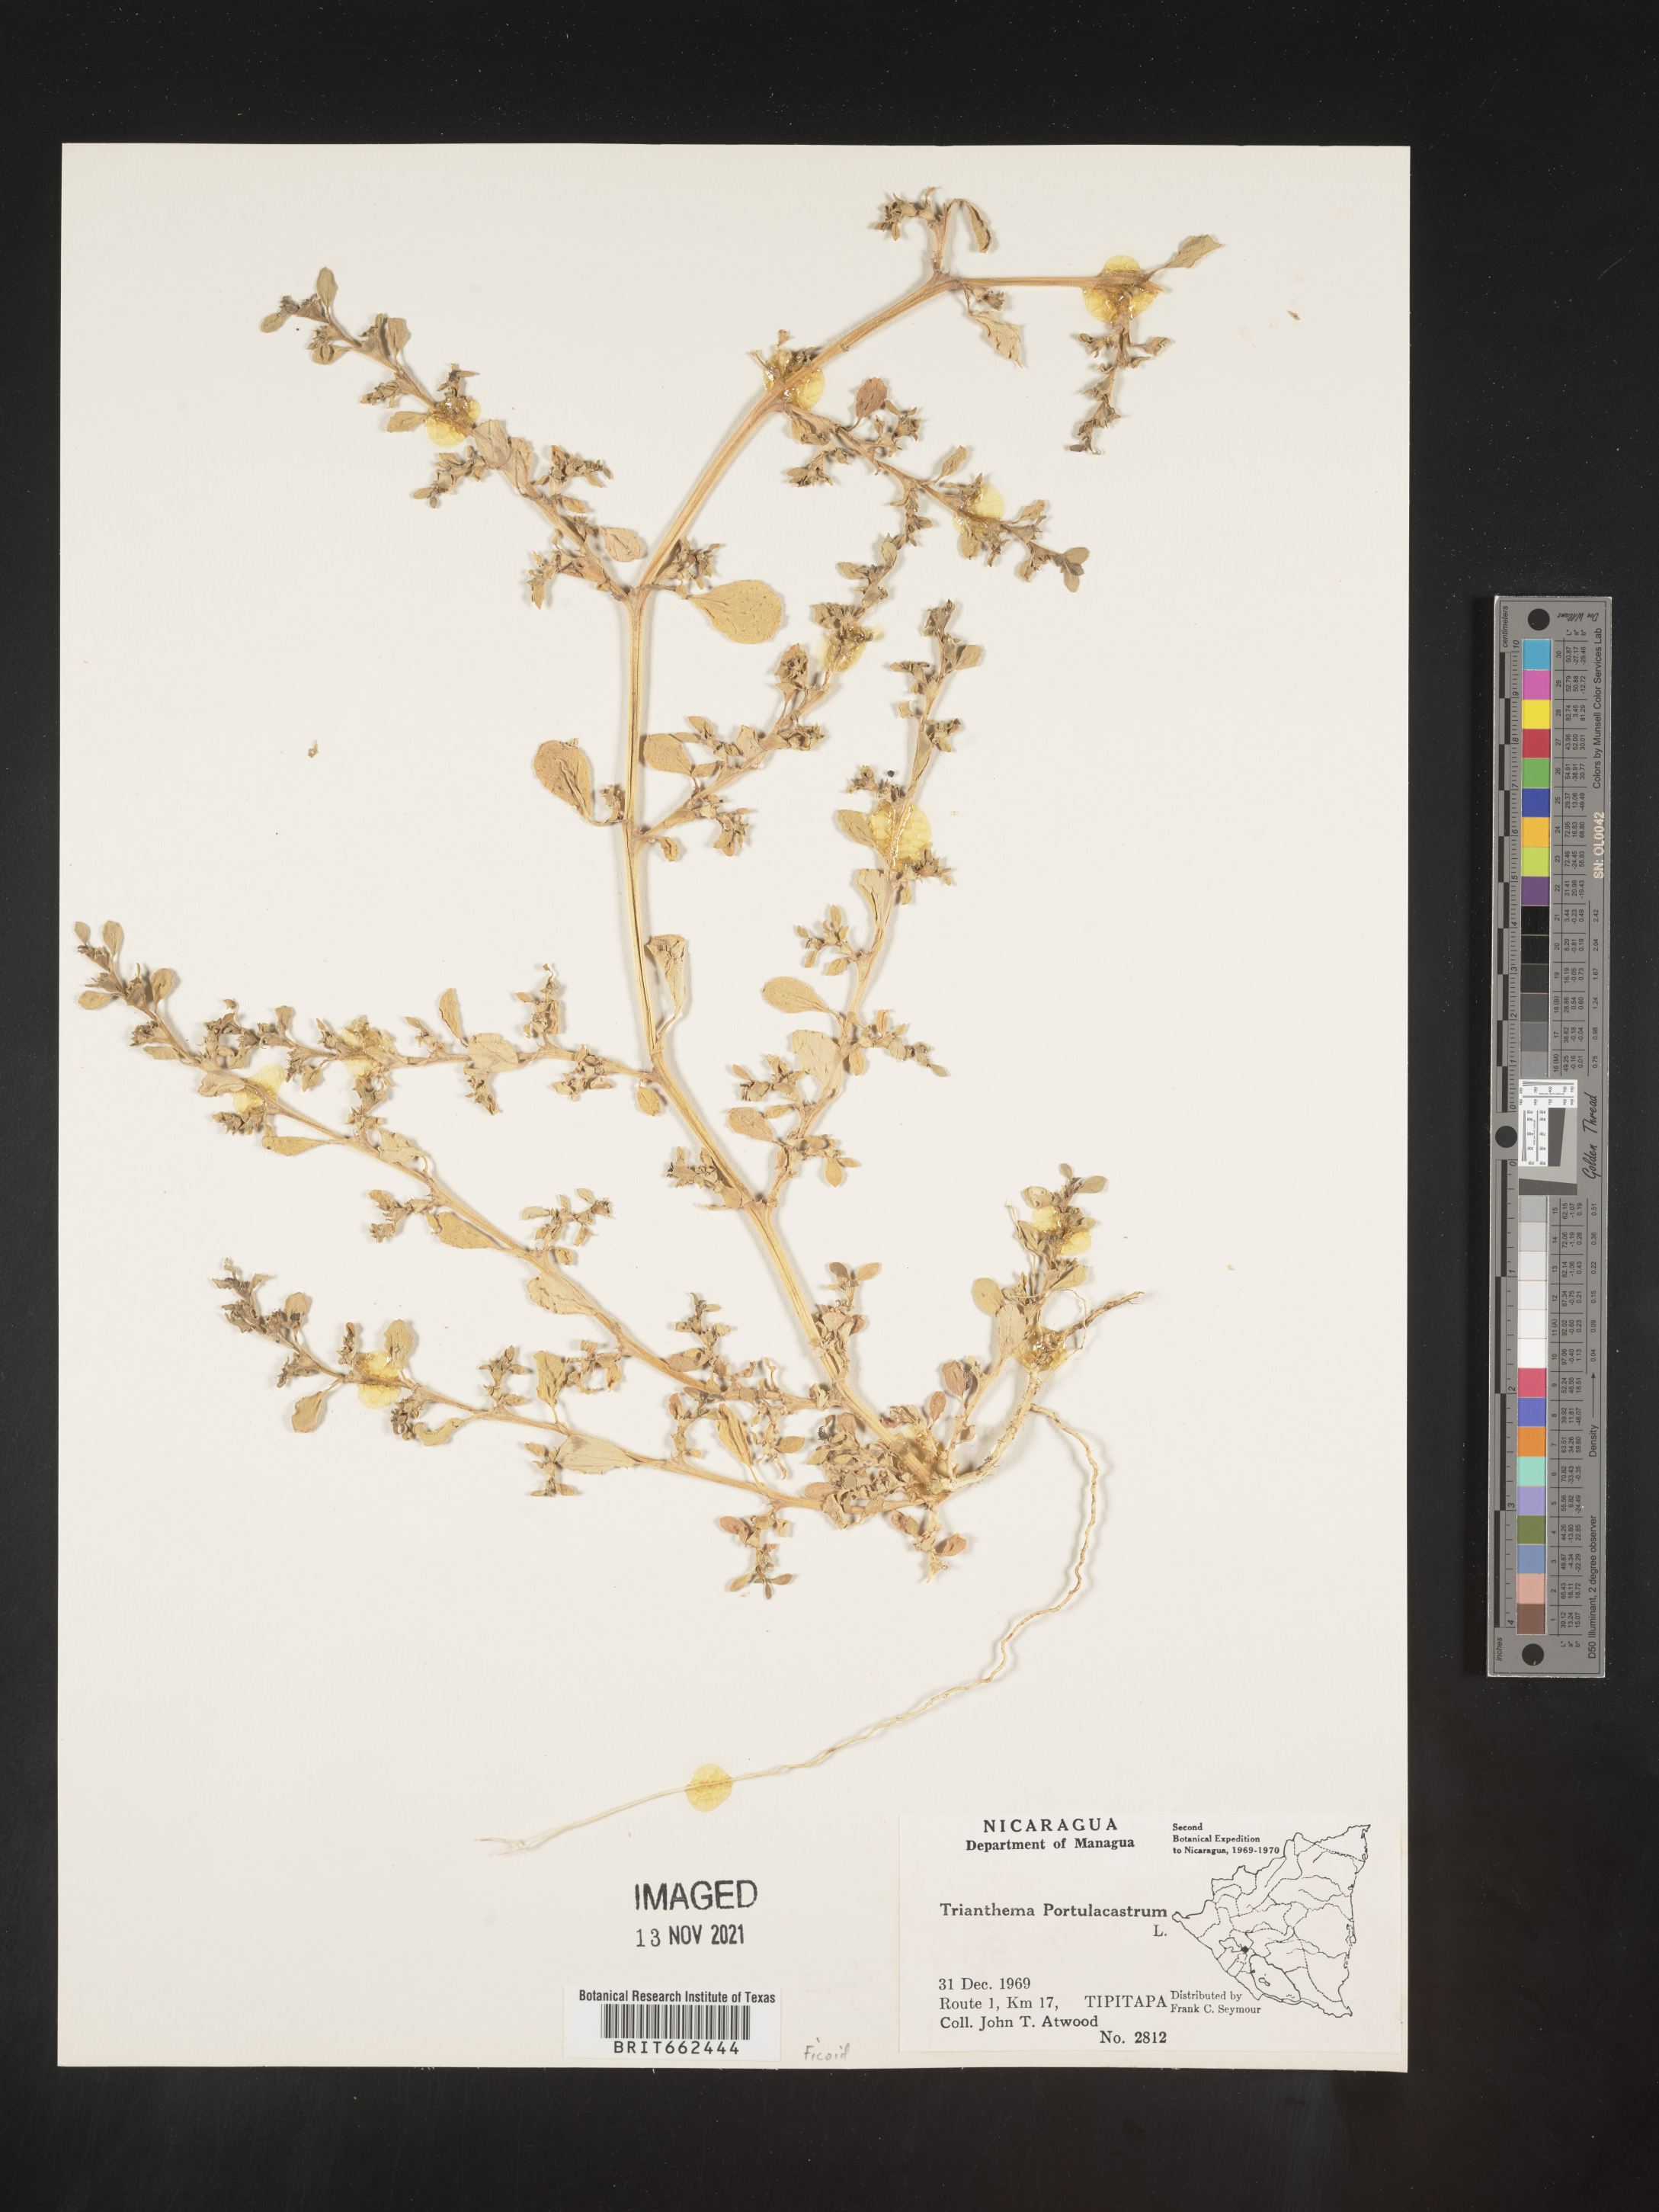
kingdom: Plantae
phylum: Tracheophyta
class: Magnoliopsida
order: Caryophyllales
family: Aizoaceae
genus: Trianthema
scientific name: Trianthema
